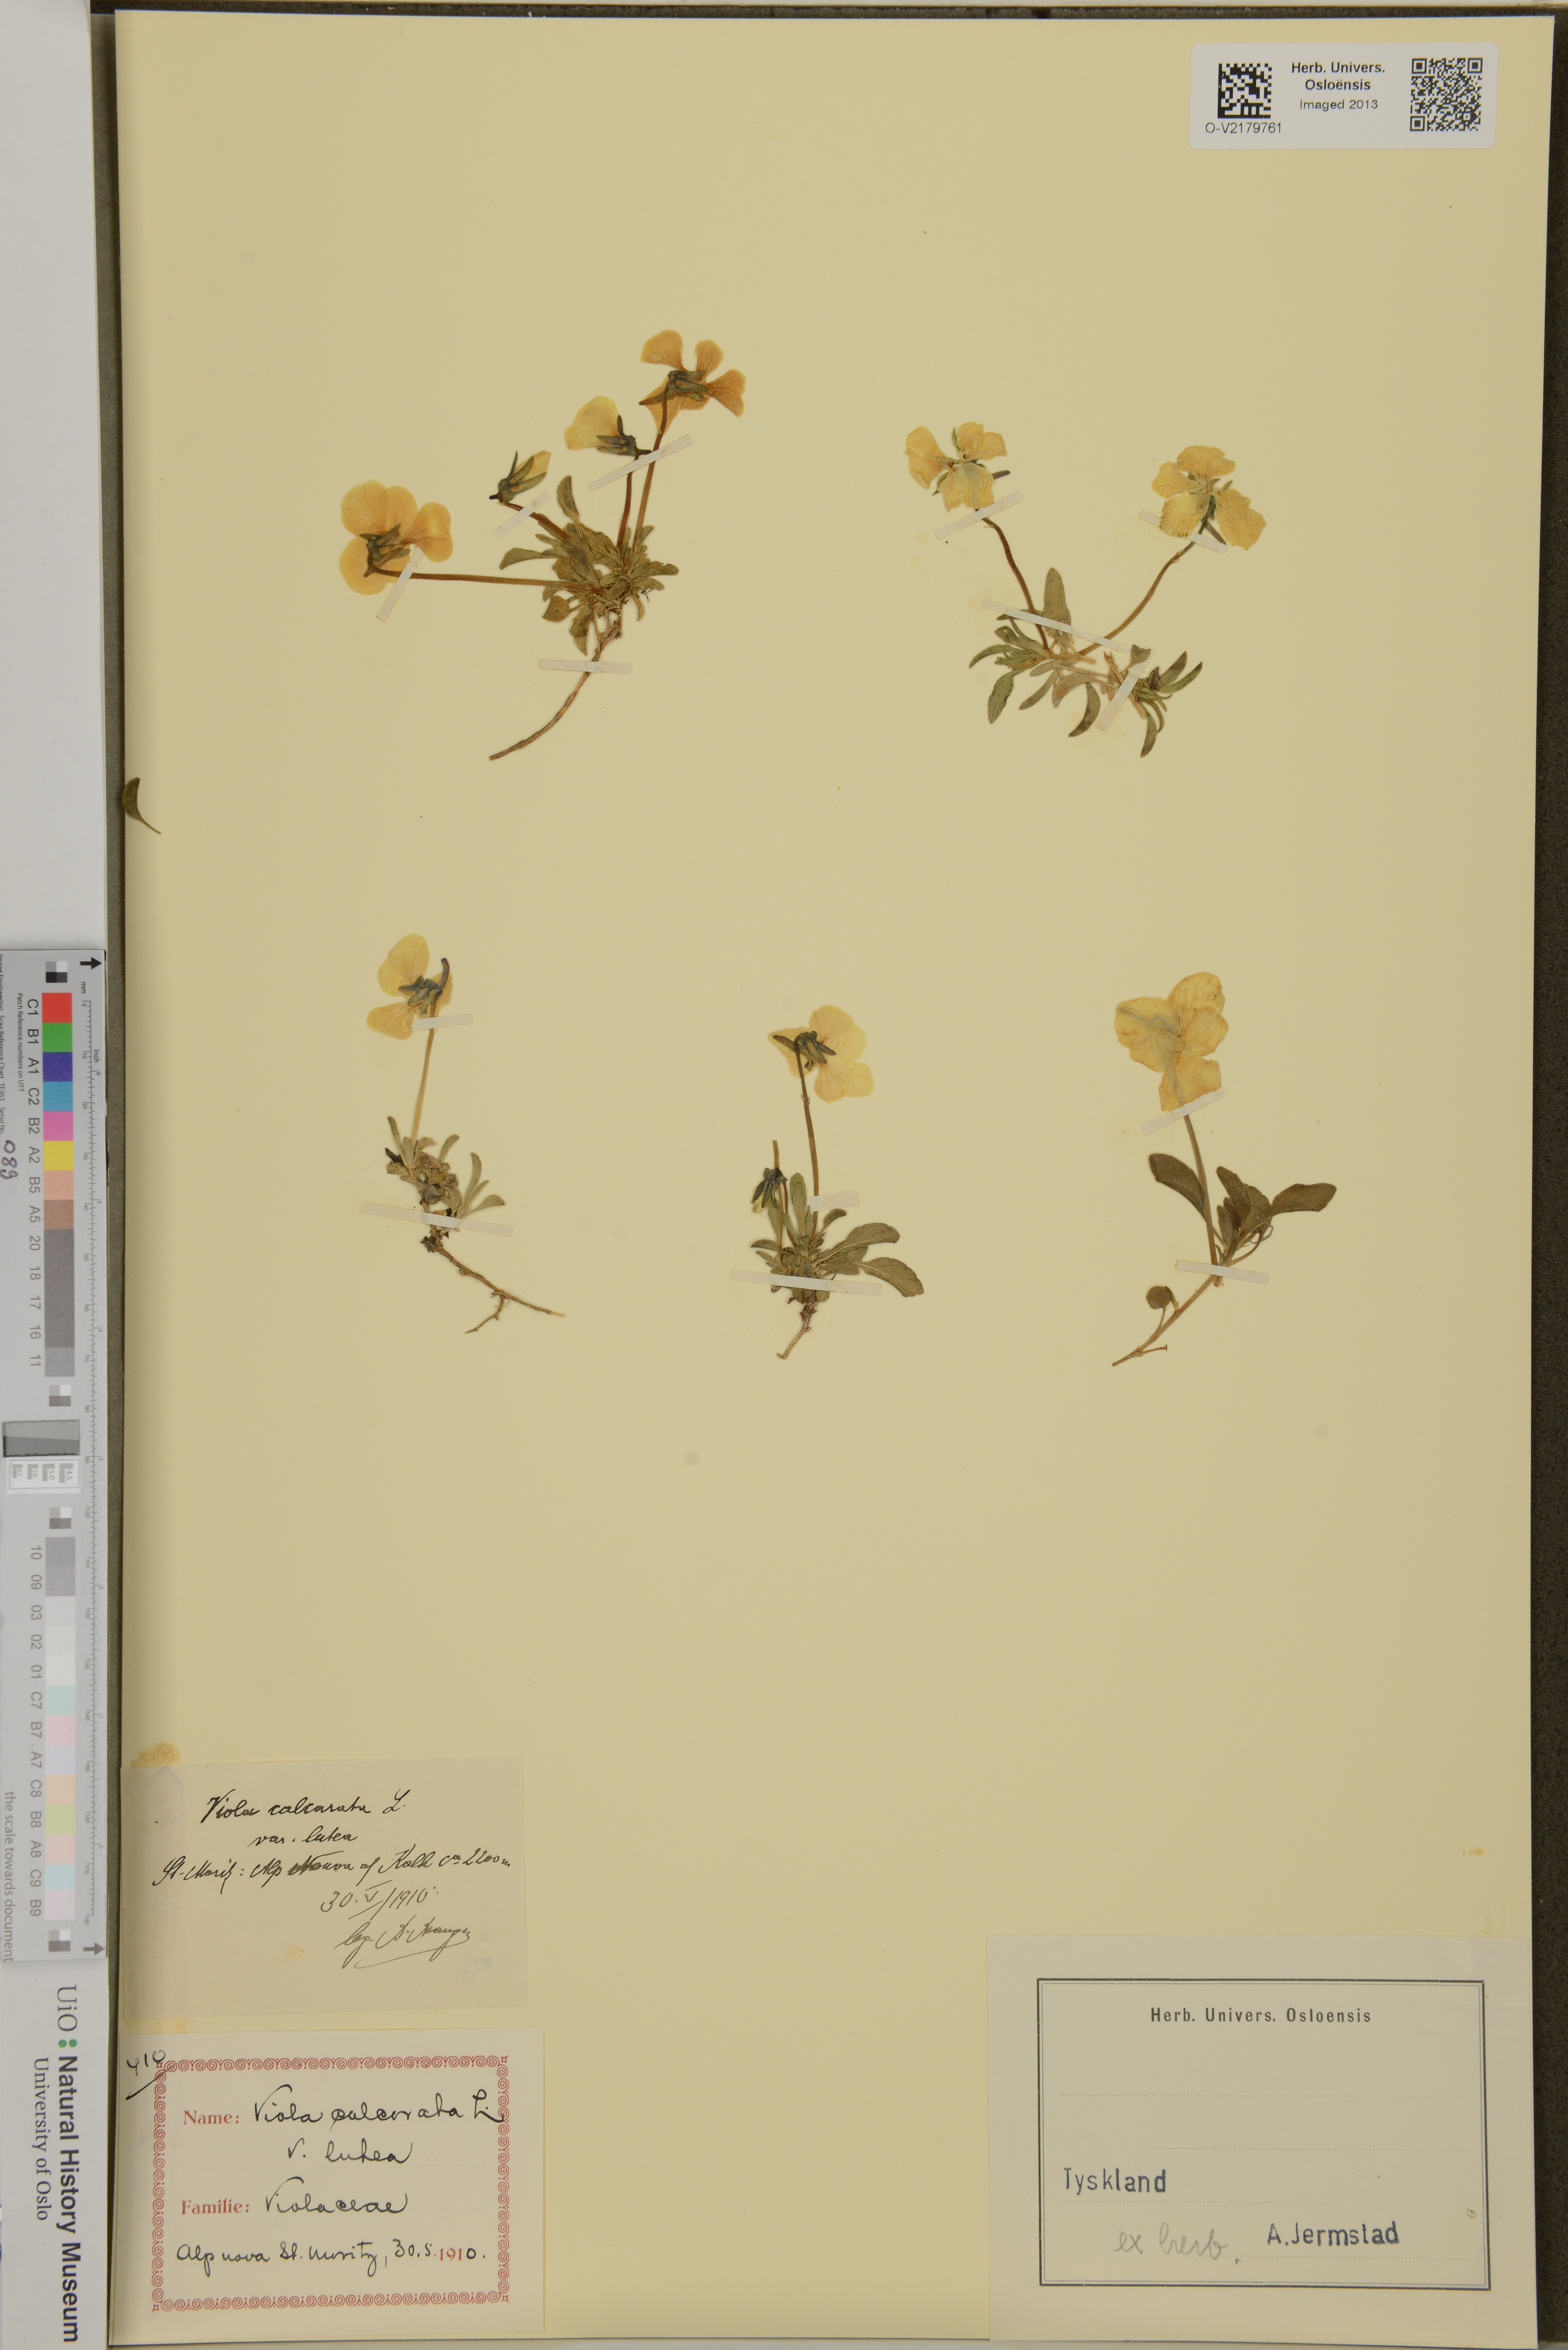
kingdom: Plantae
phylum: Tracheophyta
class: Magnoliopsida
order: Malpighiales
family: Violaceae
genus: Viola
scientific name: Viola calcarata
